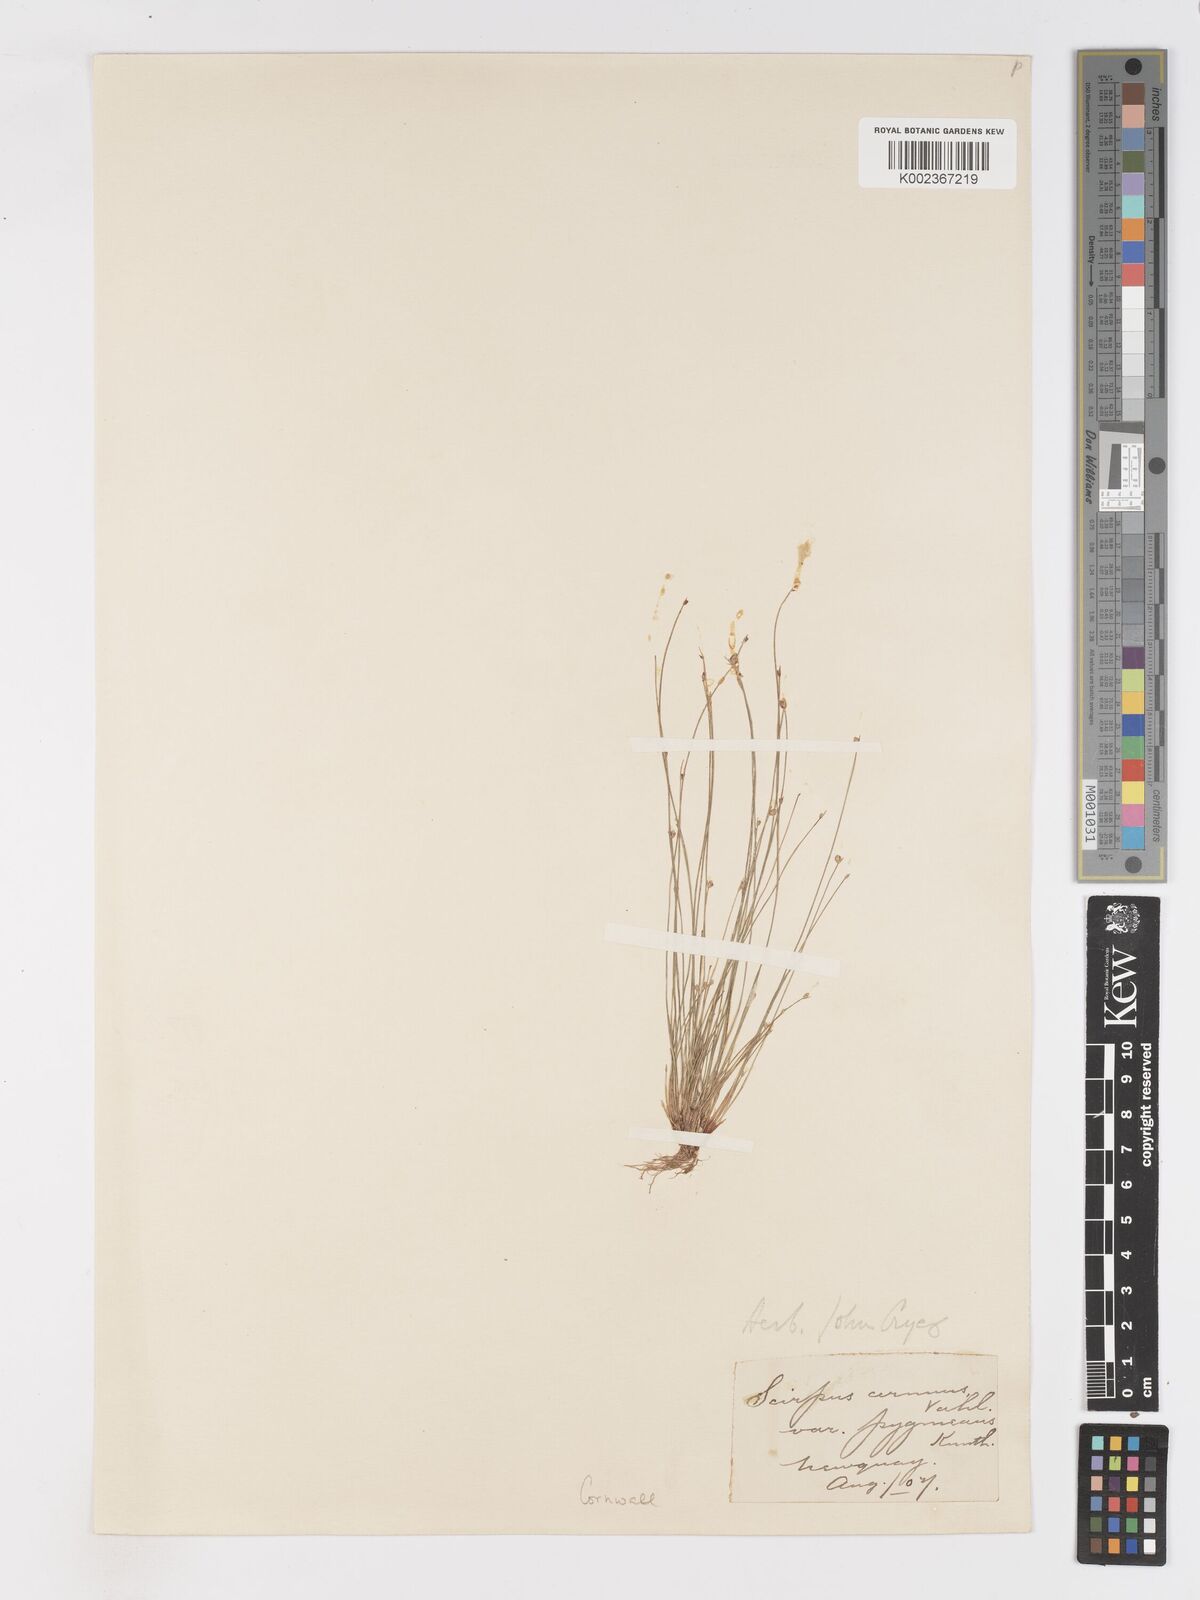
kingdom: Plantae
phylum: Tracheophyta
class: Liliopsida
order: Poales
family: Cyperaceae
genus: Isolepis
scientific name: Isolepis cernua
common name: Slender club-rush
